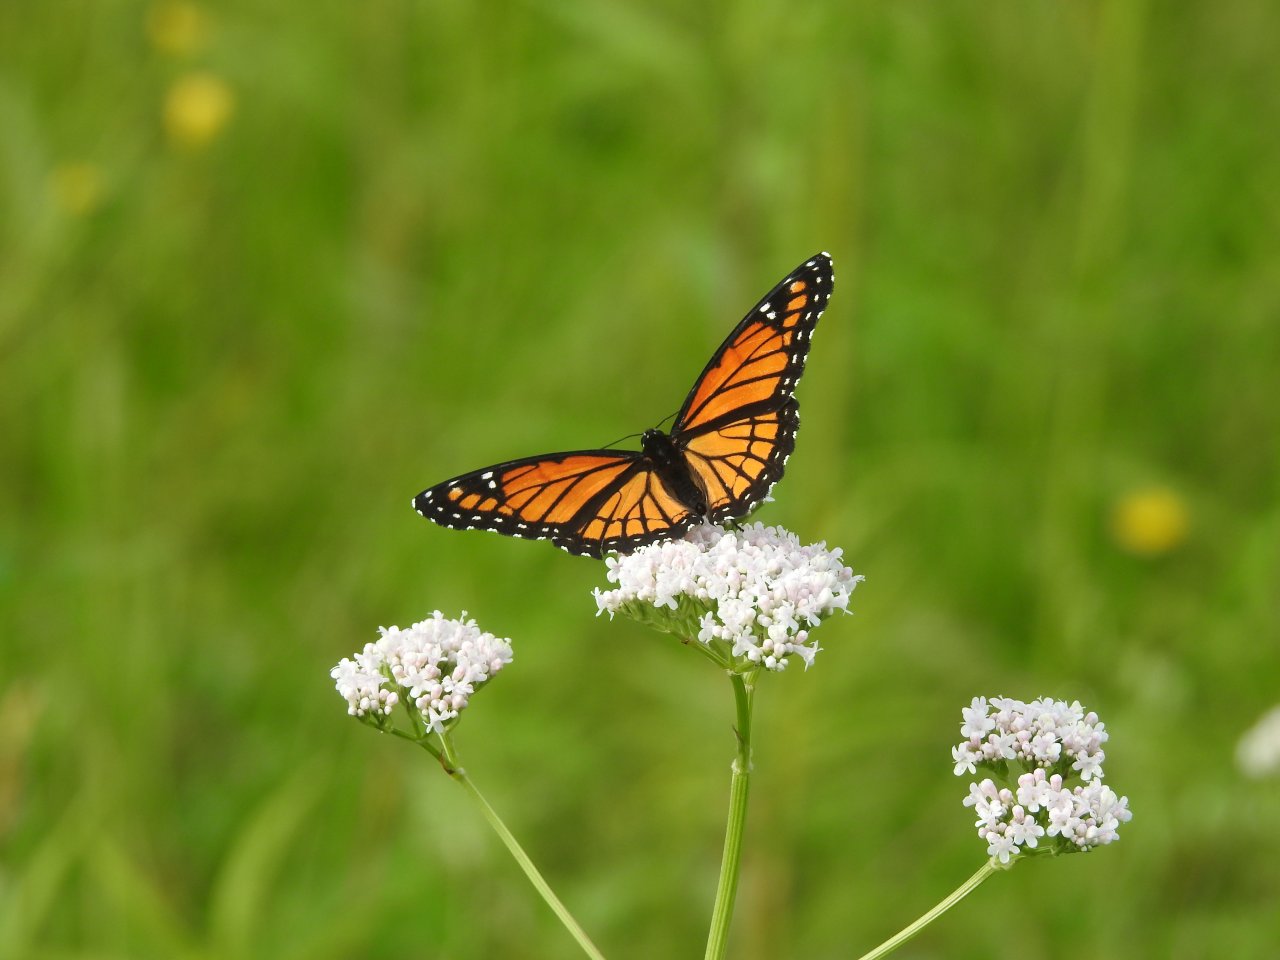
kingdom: Animalia
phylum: Arthropoda
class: Insecta
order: Lepidoptera
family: Nymphalidae
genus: Limenitis
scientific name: Limenitis archippus
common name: Viceroy
